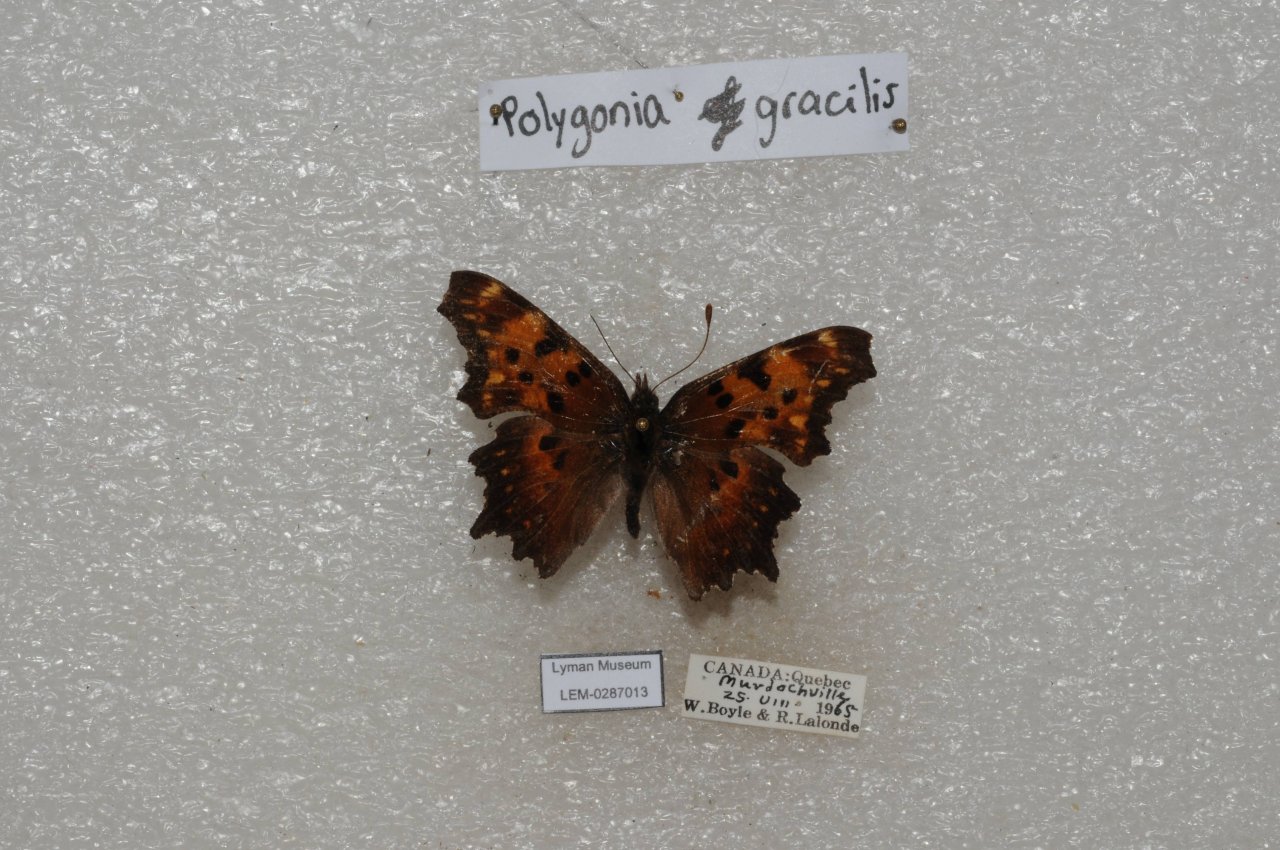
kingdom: Animalia
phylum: Arthropoda
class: Insecta
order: Lepidoptera
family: Nymphalidae
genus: Polygonia
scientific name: Polygonia gracilis
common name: Hoary Comma
